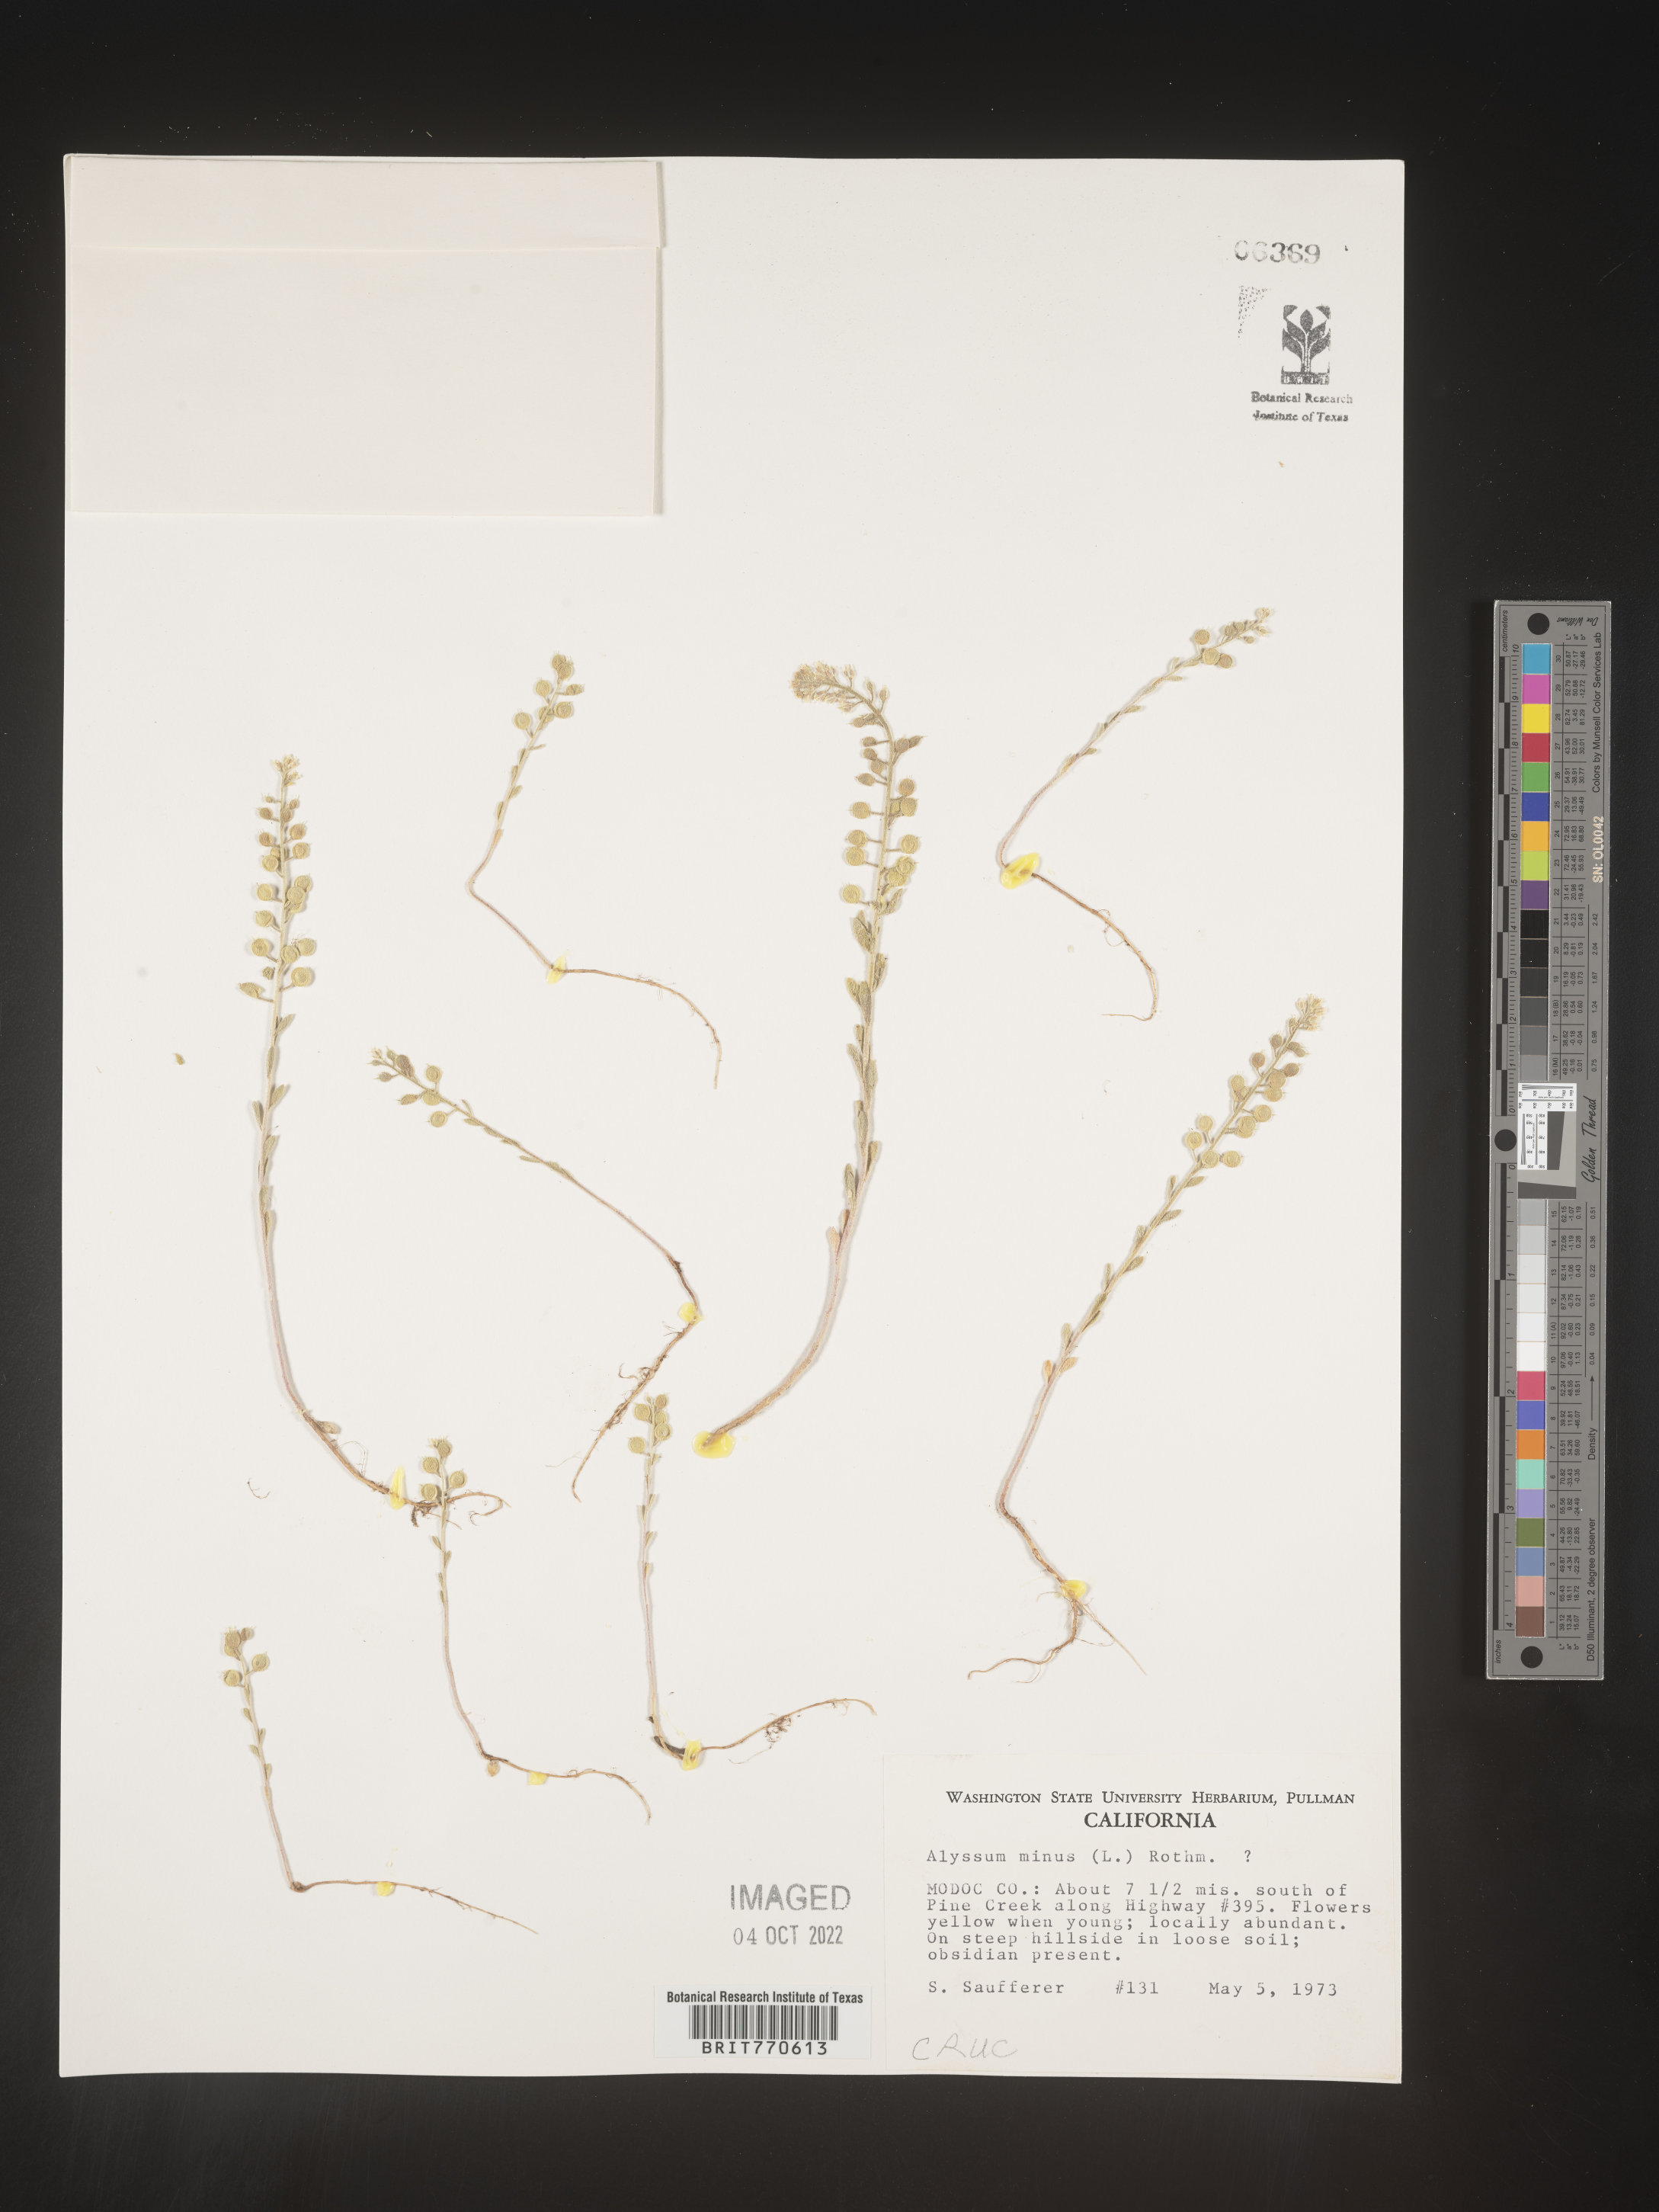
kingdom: Plantae
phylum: Tracheophyta
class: Magnoliopsida
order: Brassicales
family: Brassicaceae
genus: Alyssum
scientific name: Alyssum
